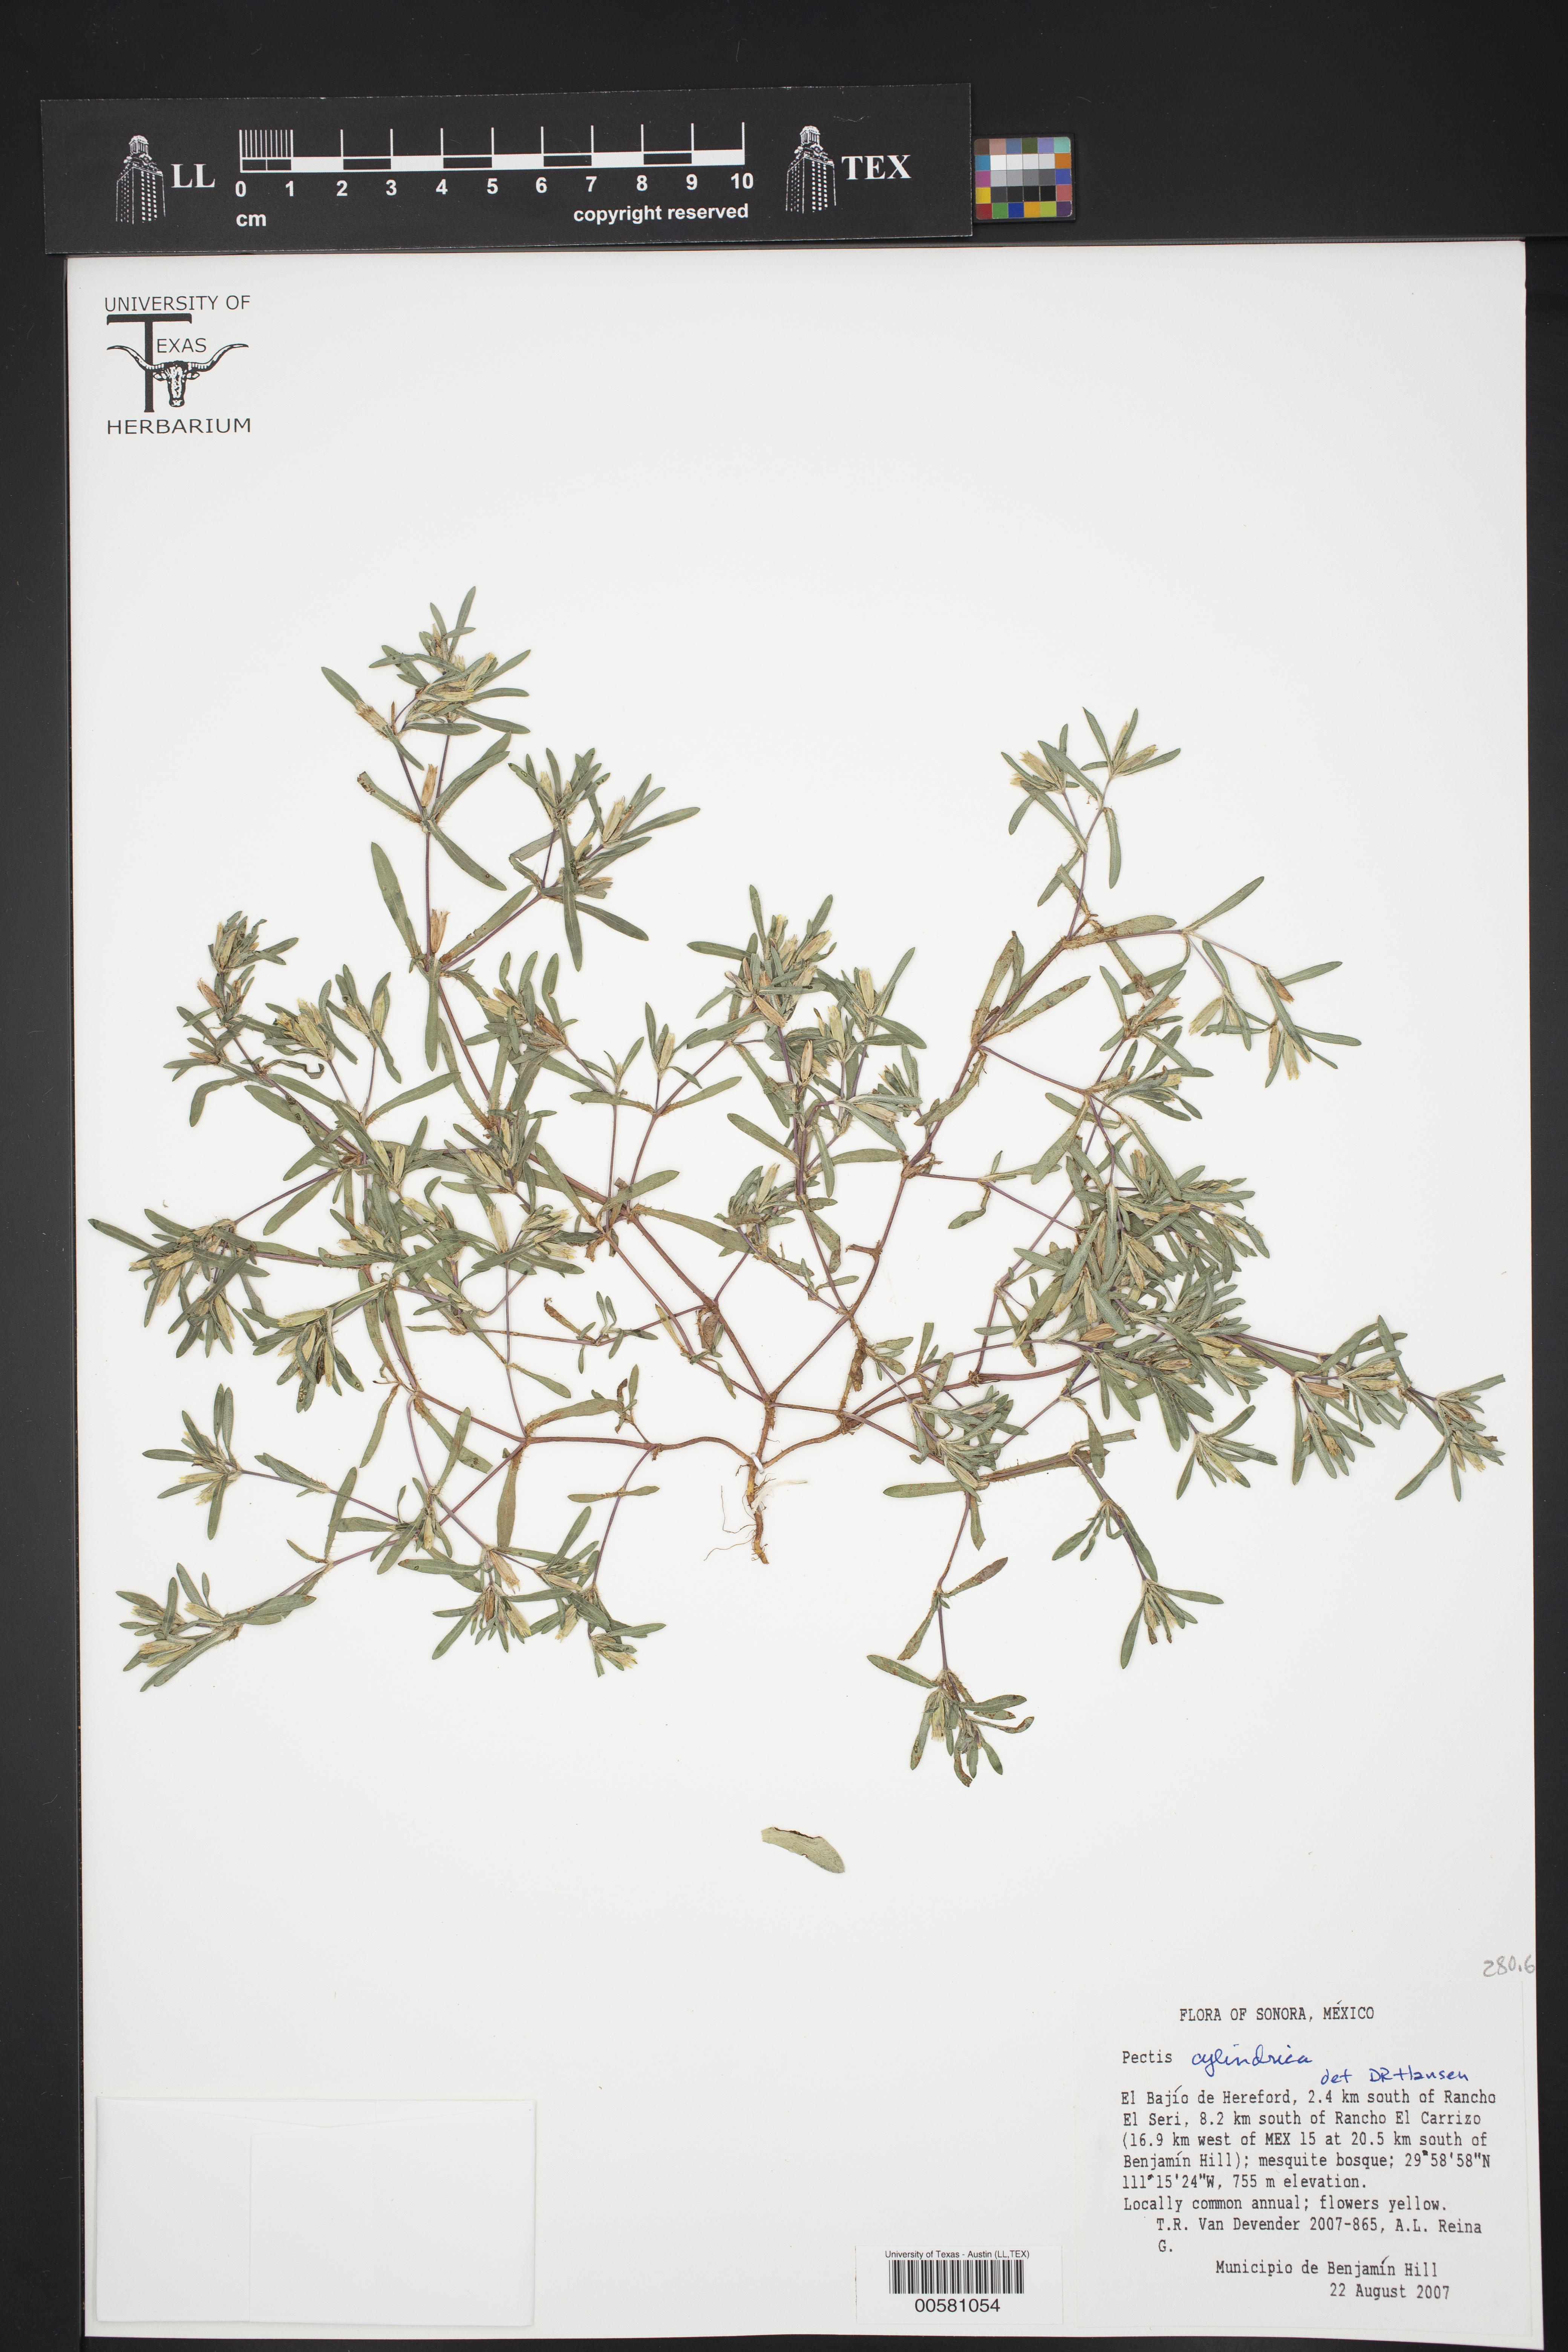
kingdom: Plantae
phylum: Tracheophyta
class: Magnoliopsida
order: Asterales
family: Asteraceae
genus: Pectis
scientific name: Pectis cylindrica
